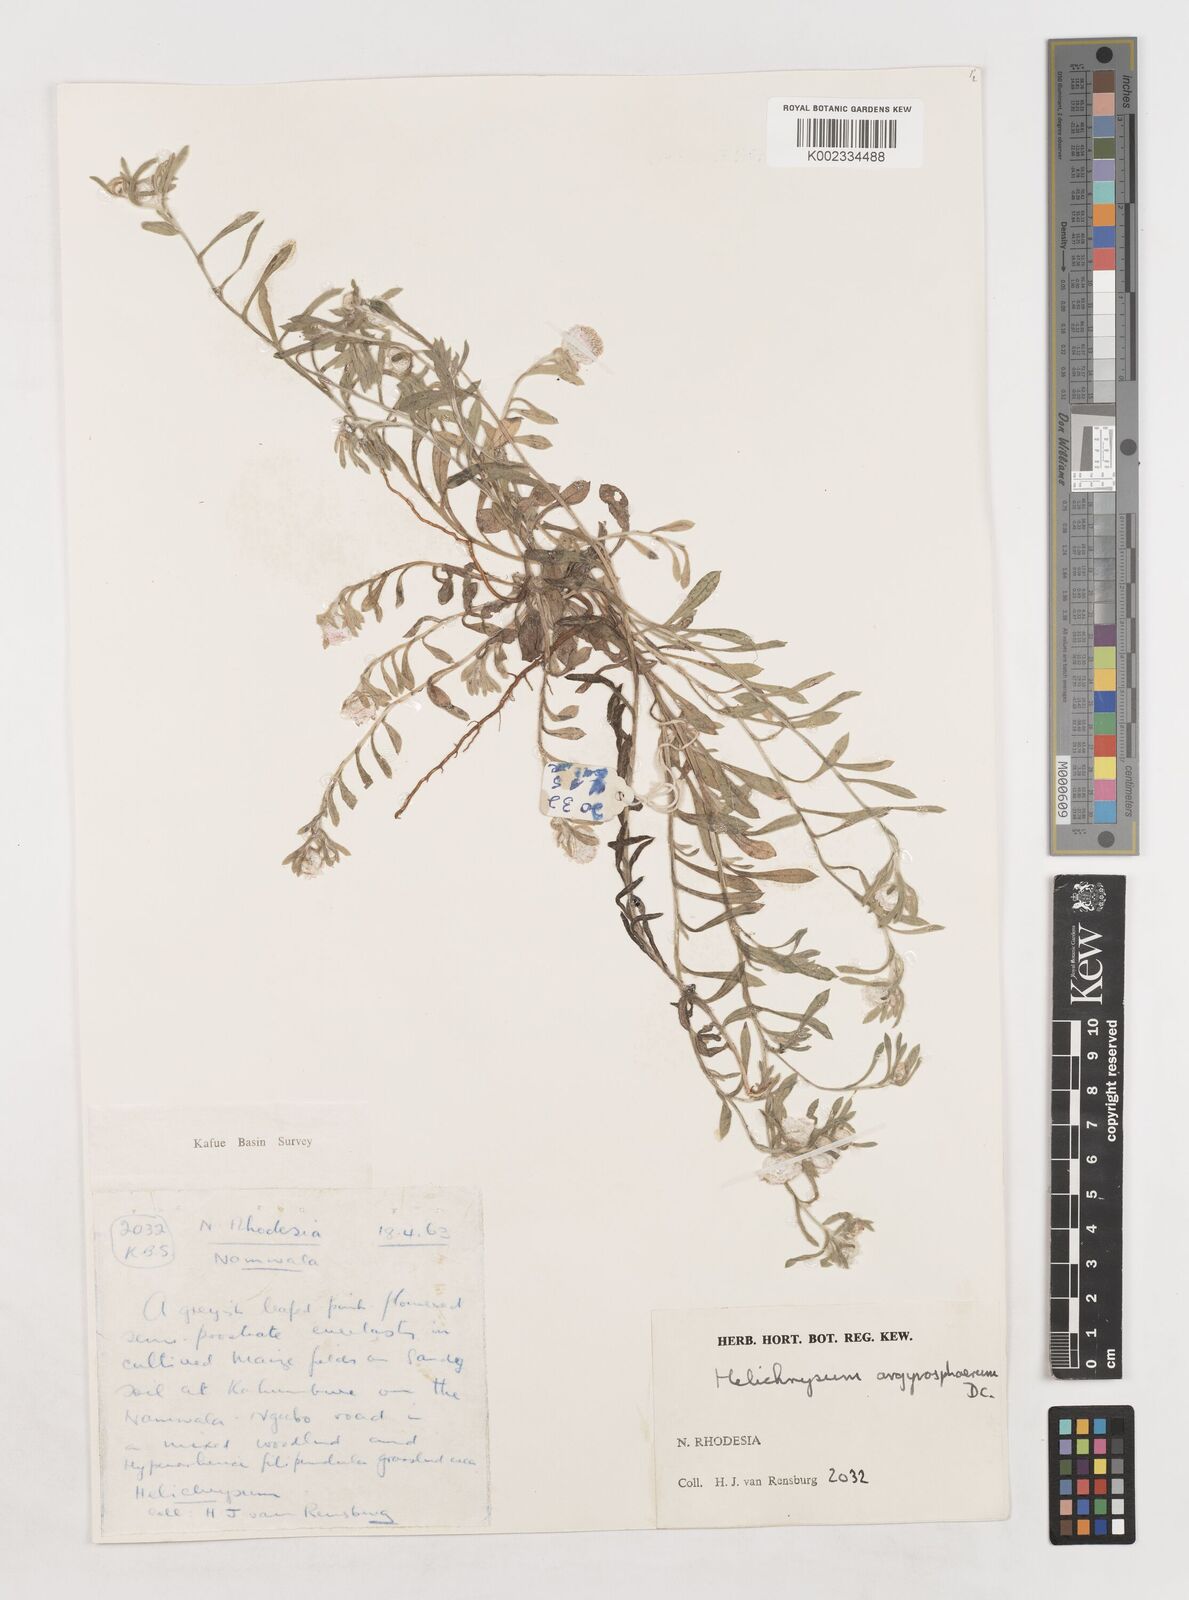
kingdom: Plantae
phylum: Tracheophyta
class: Magnoliopsida
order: Asterales
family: Asteraceae
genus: Helichrysum
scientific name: Helichrysum argyrosphaerum
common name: Wild everlasting
